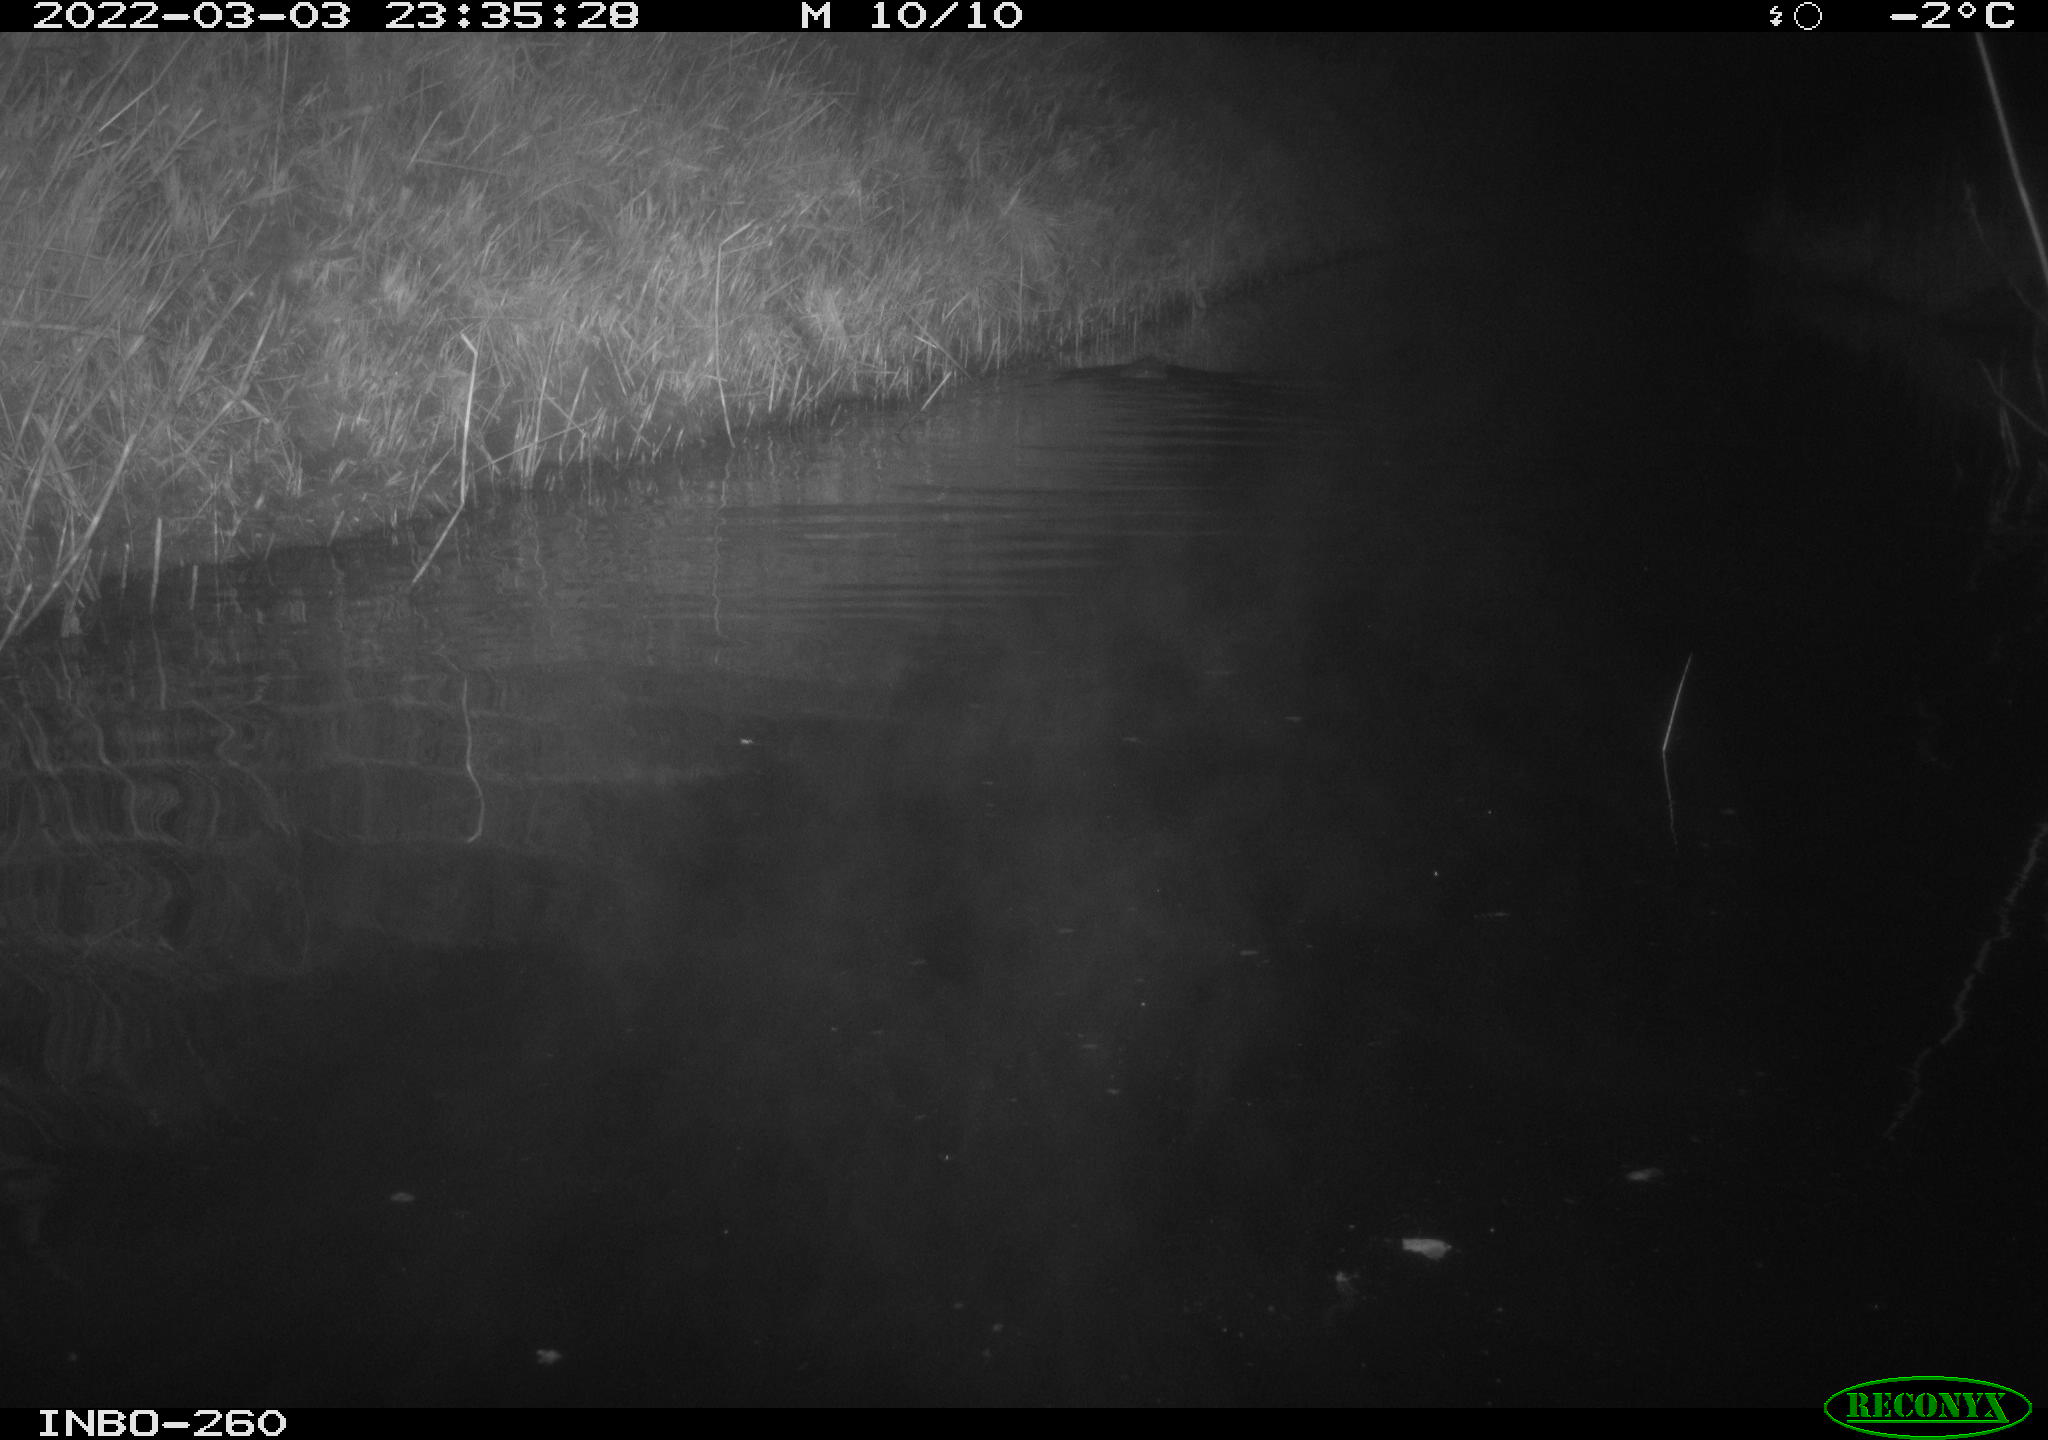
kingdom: Animalia
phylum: Chordata
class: Mammalia
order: Rodentia
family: Cricetidae
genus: Ondatra
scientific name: Ondatra zibethicus
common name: Muskrat
